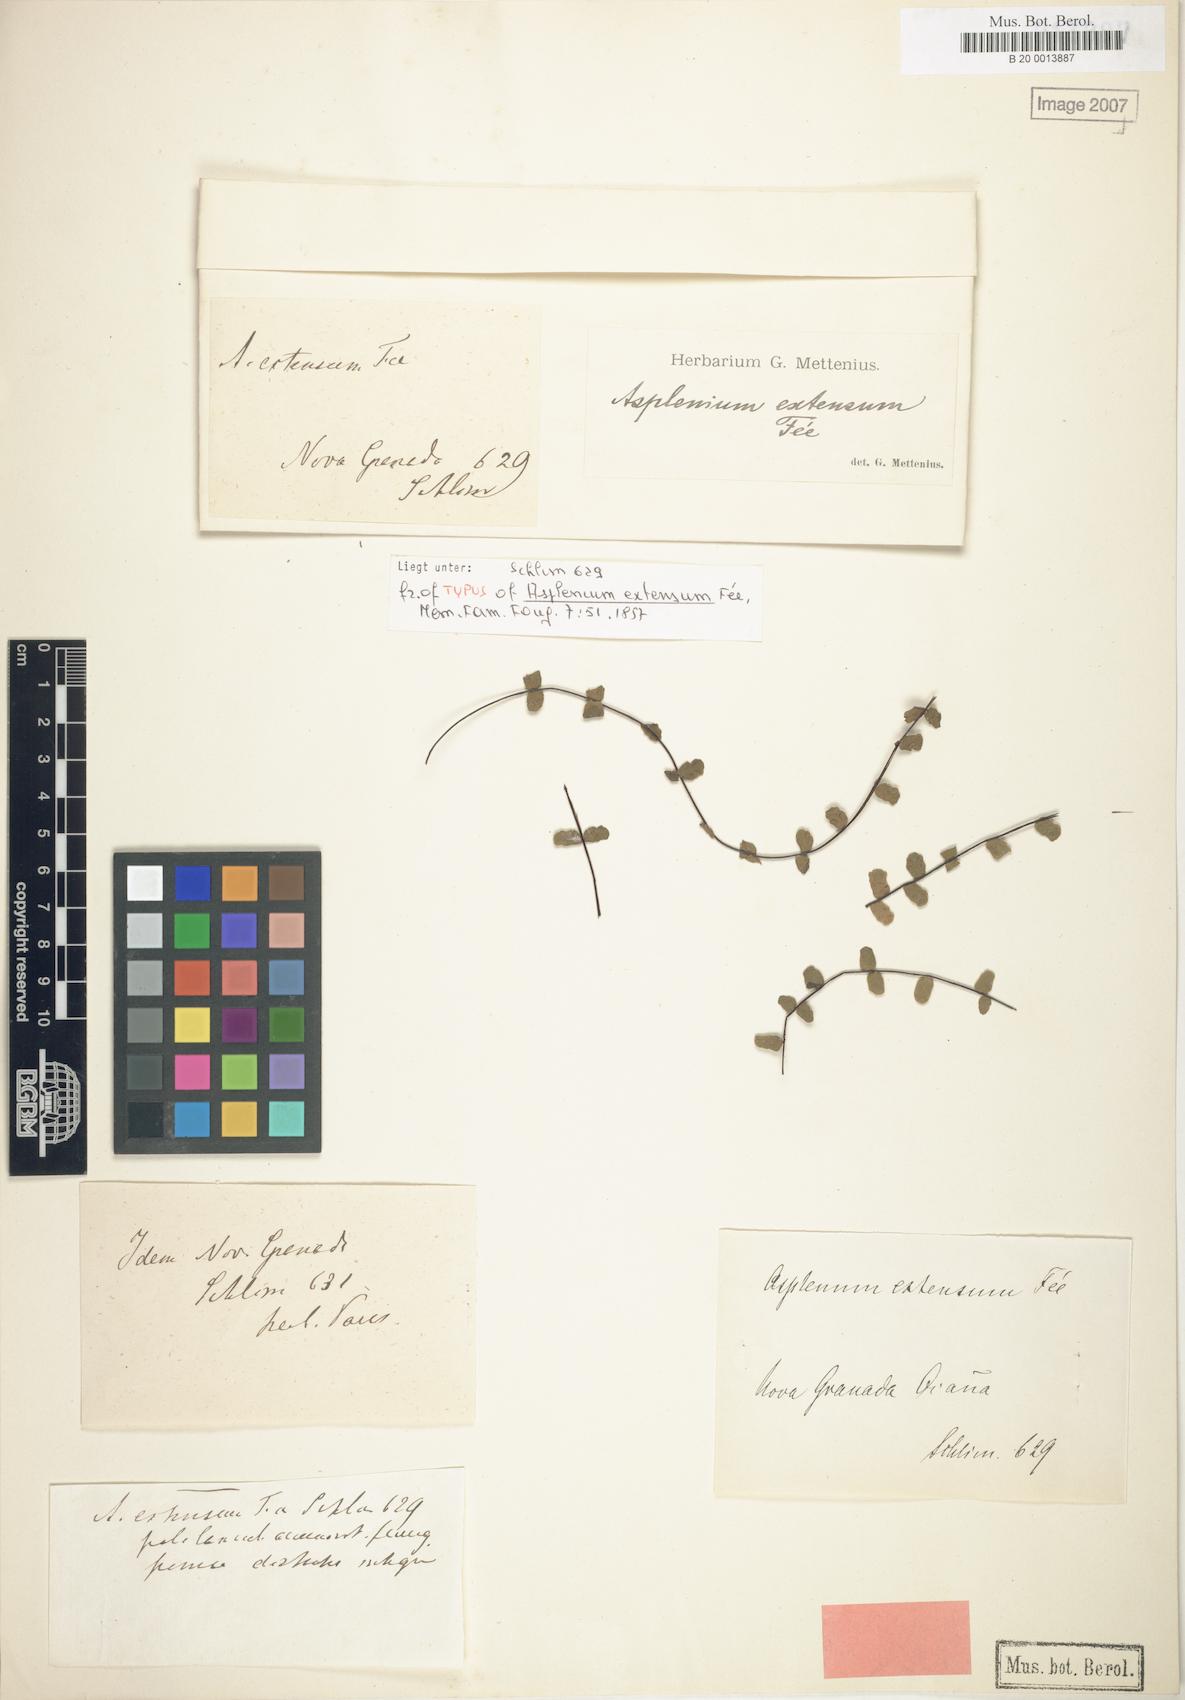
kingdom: Plantae
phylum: Tracheophyta
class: Polypodiopsida
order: Polypodiales
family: Aspleniaceae
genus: Asplenium
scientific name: Asplenium extensum
